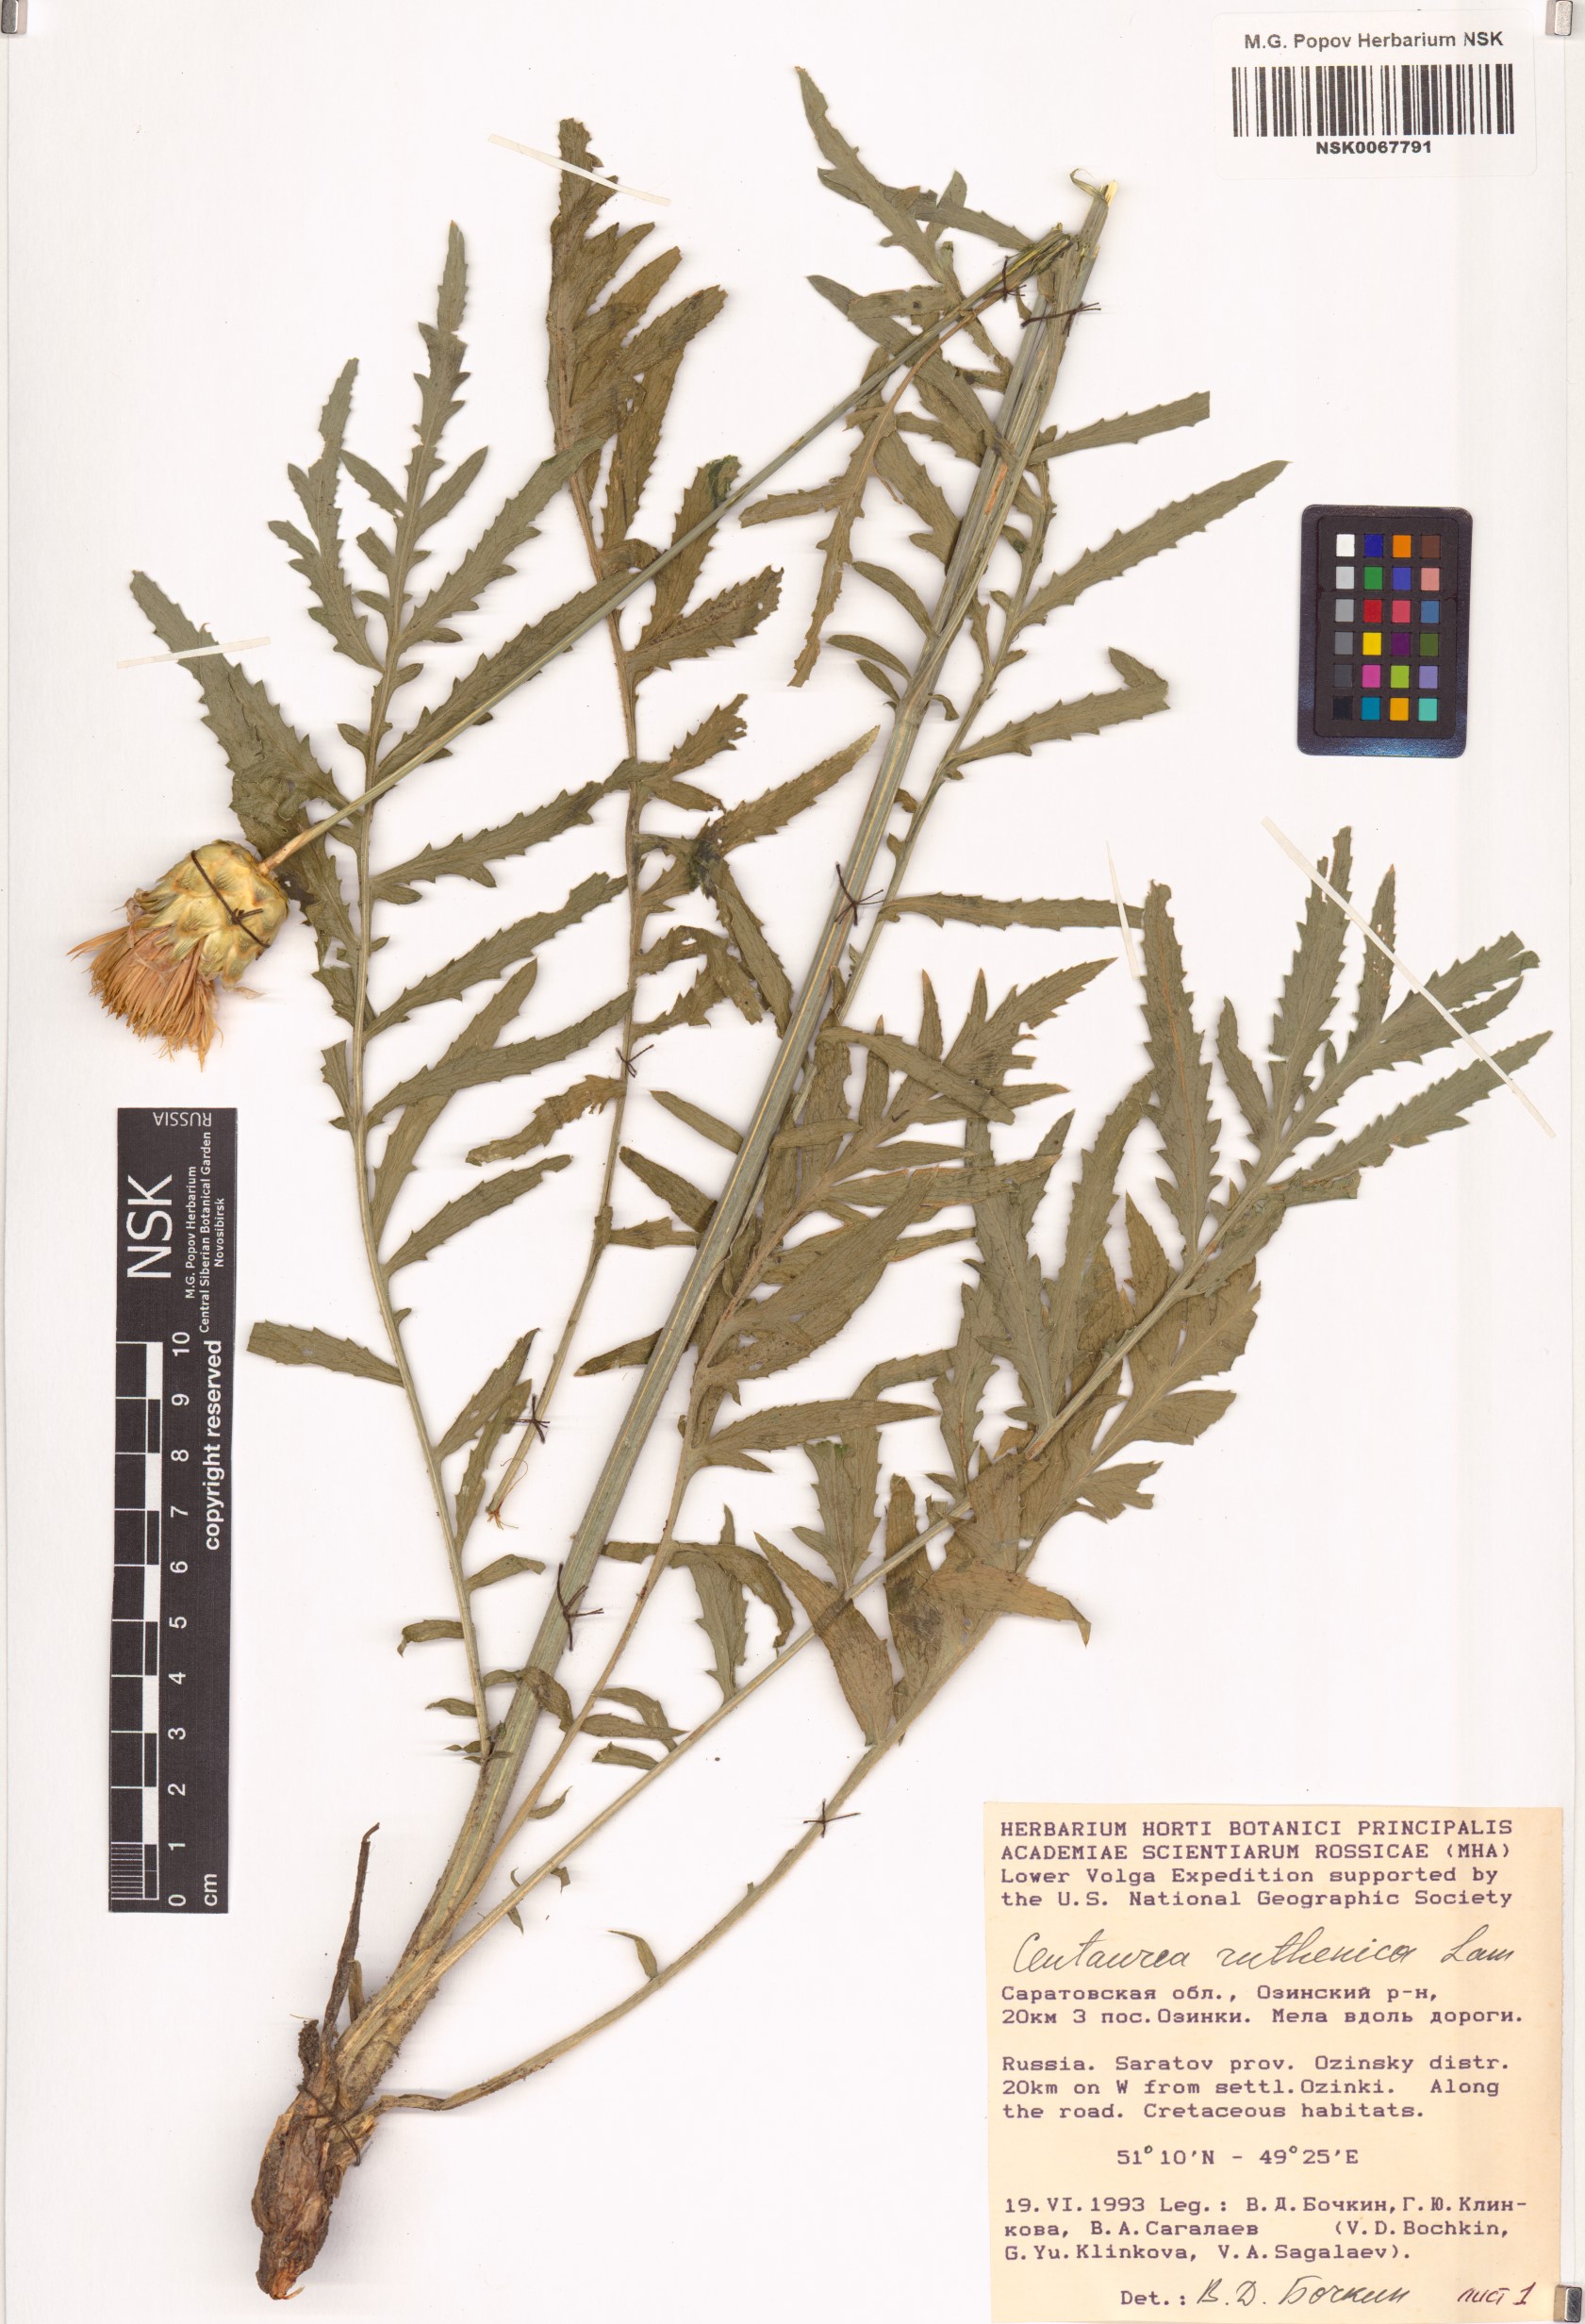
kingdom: Plantae
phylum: Tracheophyta
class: Magnoliopsida
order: Asterales
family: Asteraceae
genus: Rhaponticoides
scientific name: Rhaponticoides ruthenica
